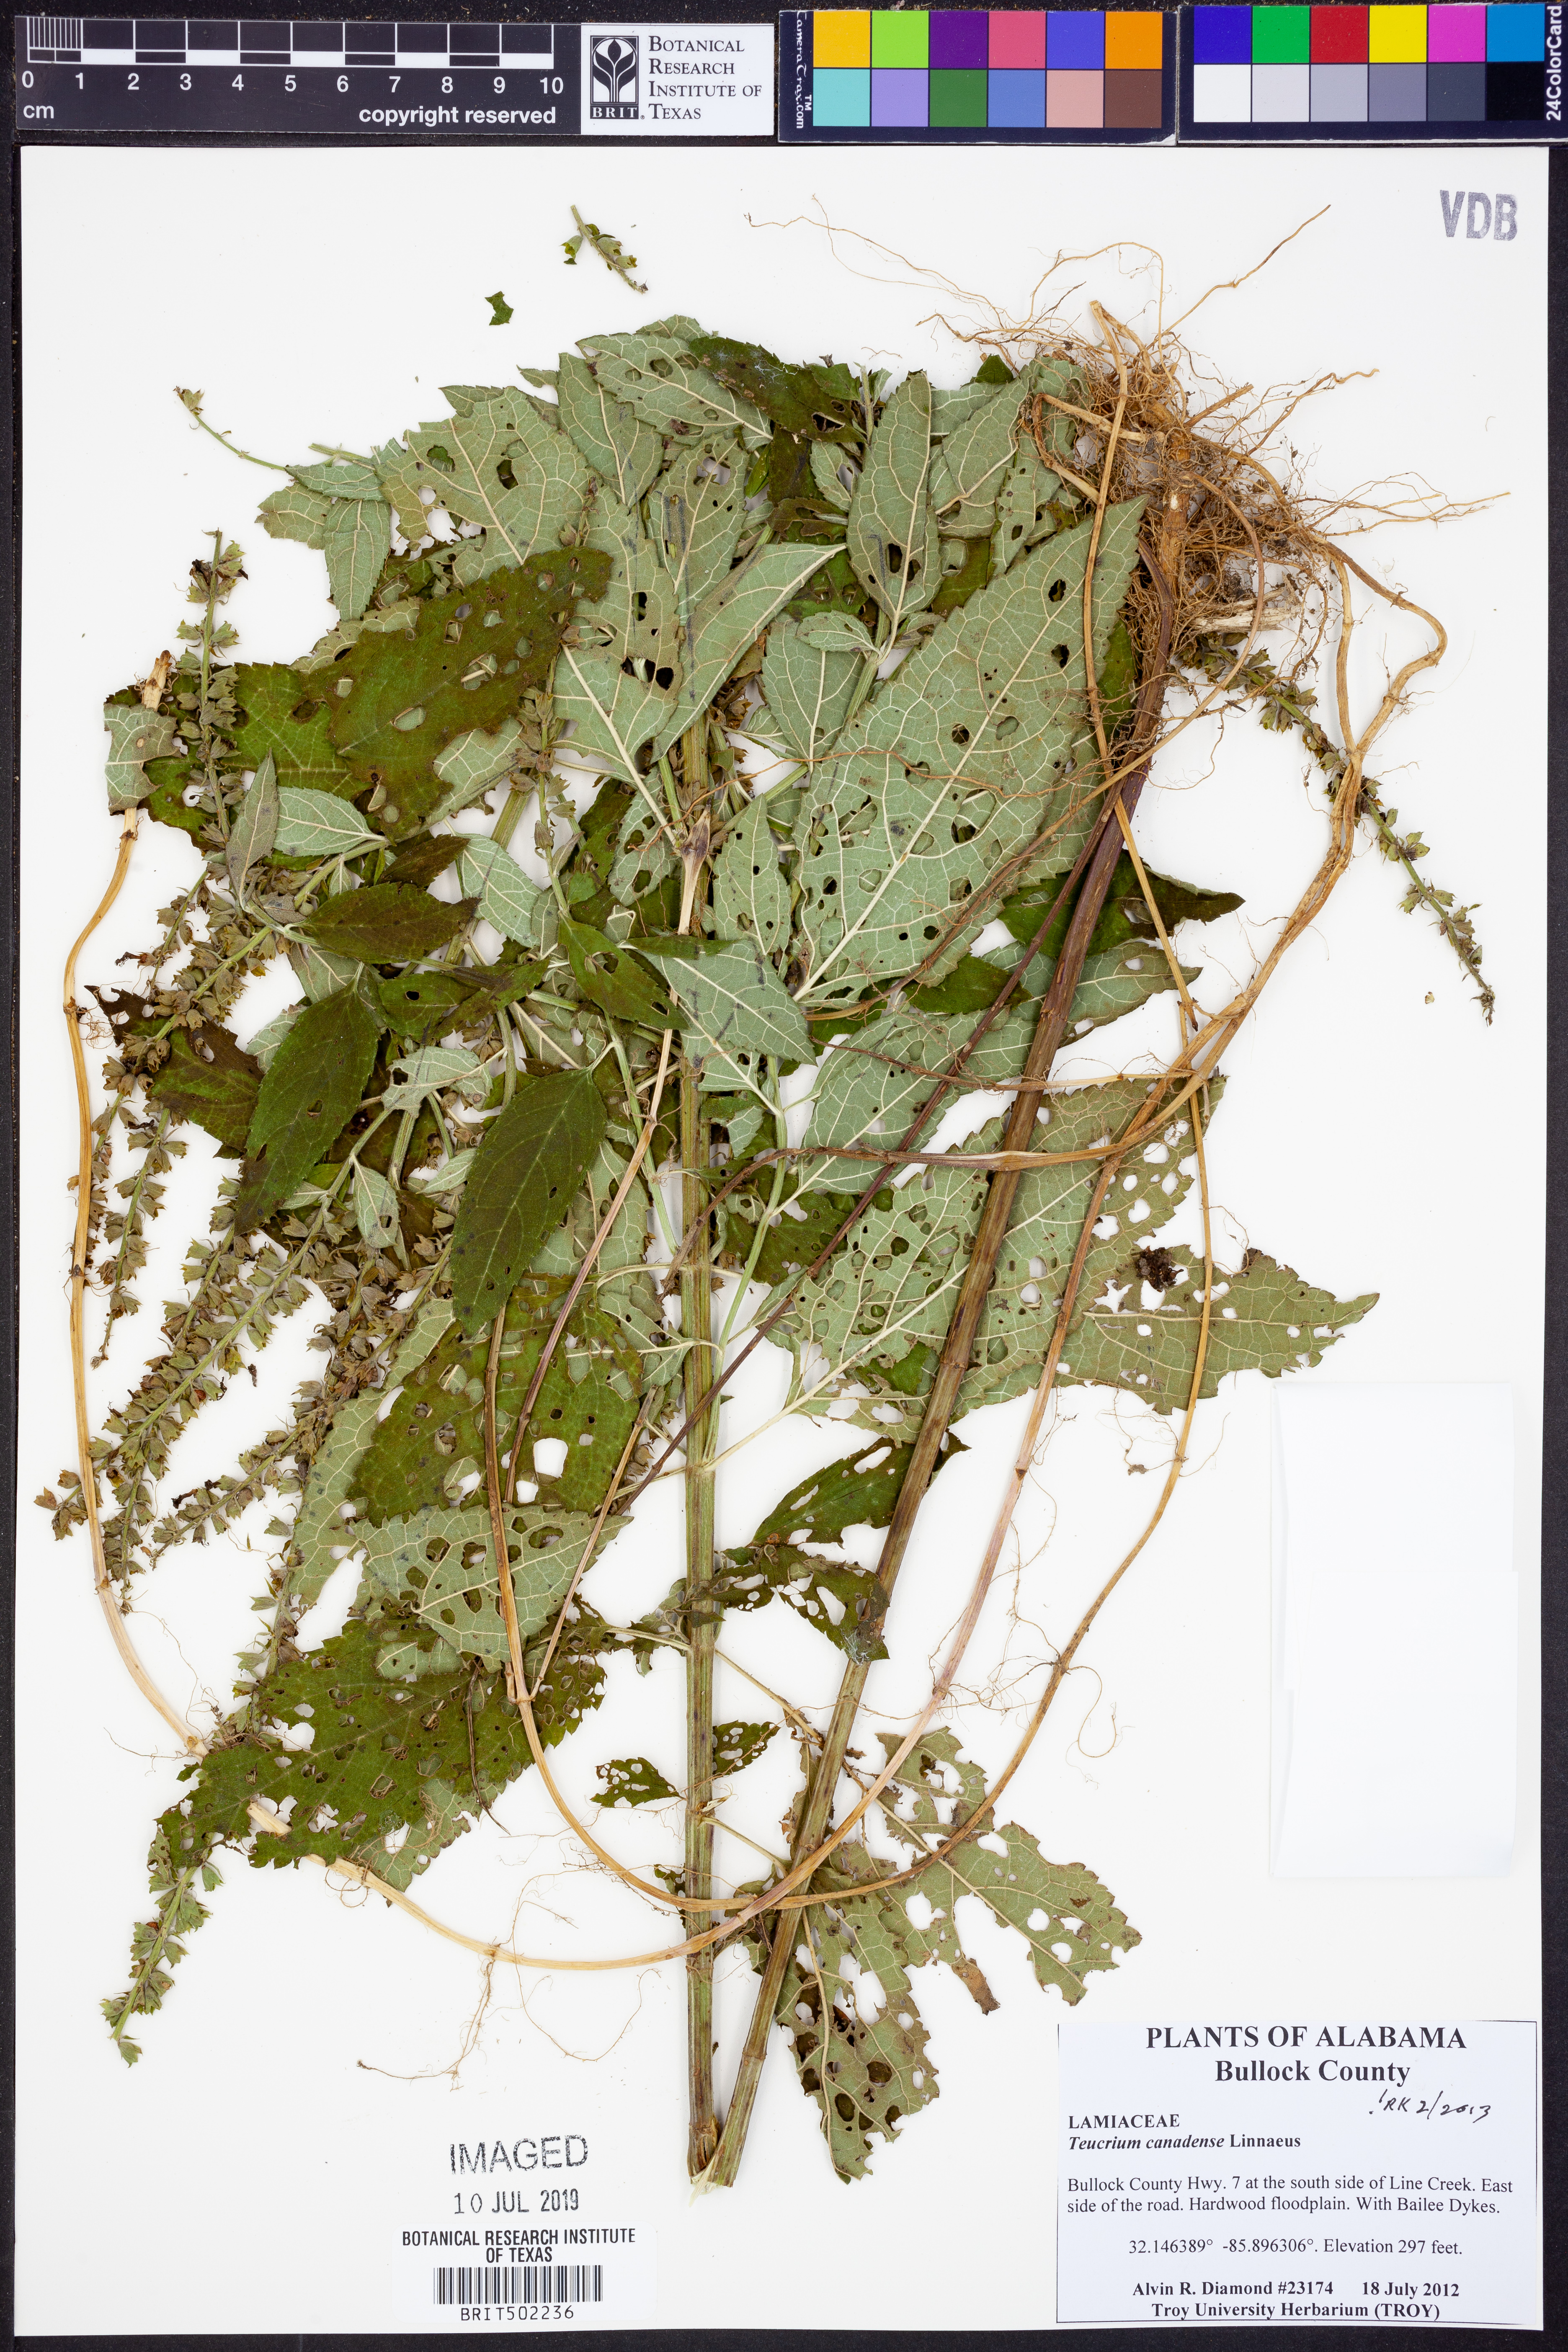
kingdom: Plantae
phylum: Tracheophyta
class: Magnoliopsida
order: Lamiales
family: Lamiaceae
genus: Teucrium
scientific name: Teucrium canadense
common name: American germander
